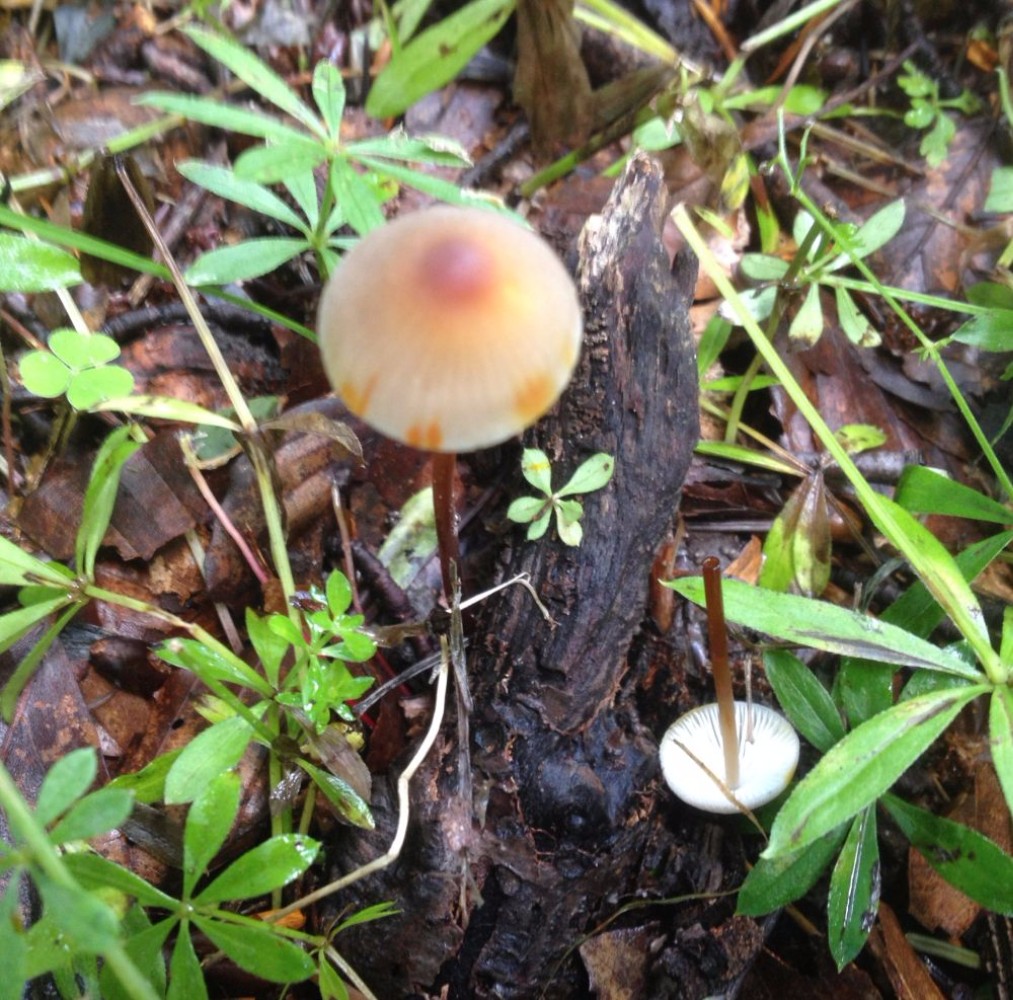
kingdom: Fungi
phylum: Basidiomycota
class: Agaricomycetes
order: Agaricales
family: Mycenaceae
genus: Mycena
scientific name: Mycena crocata
